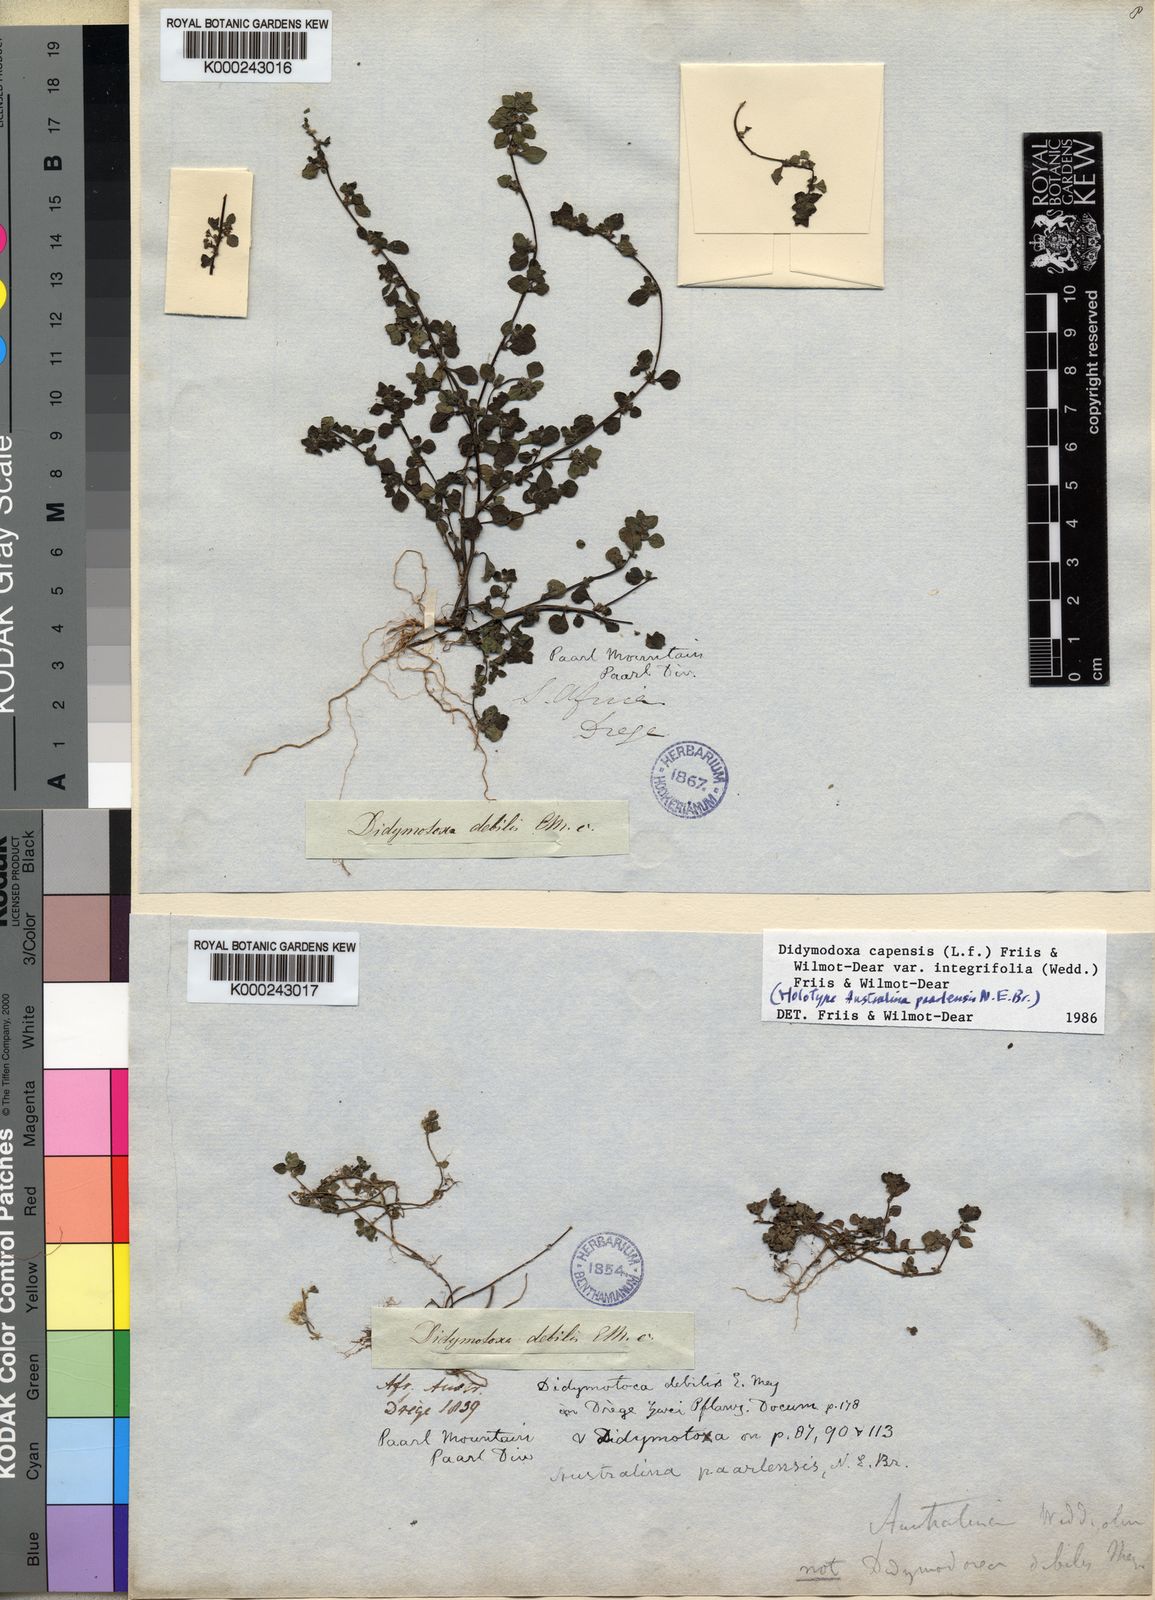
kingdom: Plantae
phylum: Tracheophyta
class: Magnoliopsida
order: Rosales
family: Urticaceae
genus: Didymodoxa
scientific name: Didymodoxa capensis
